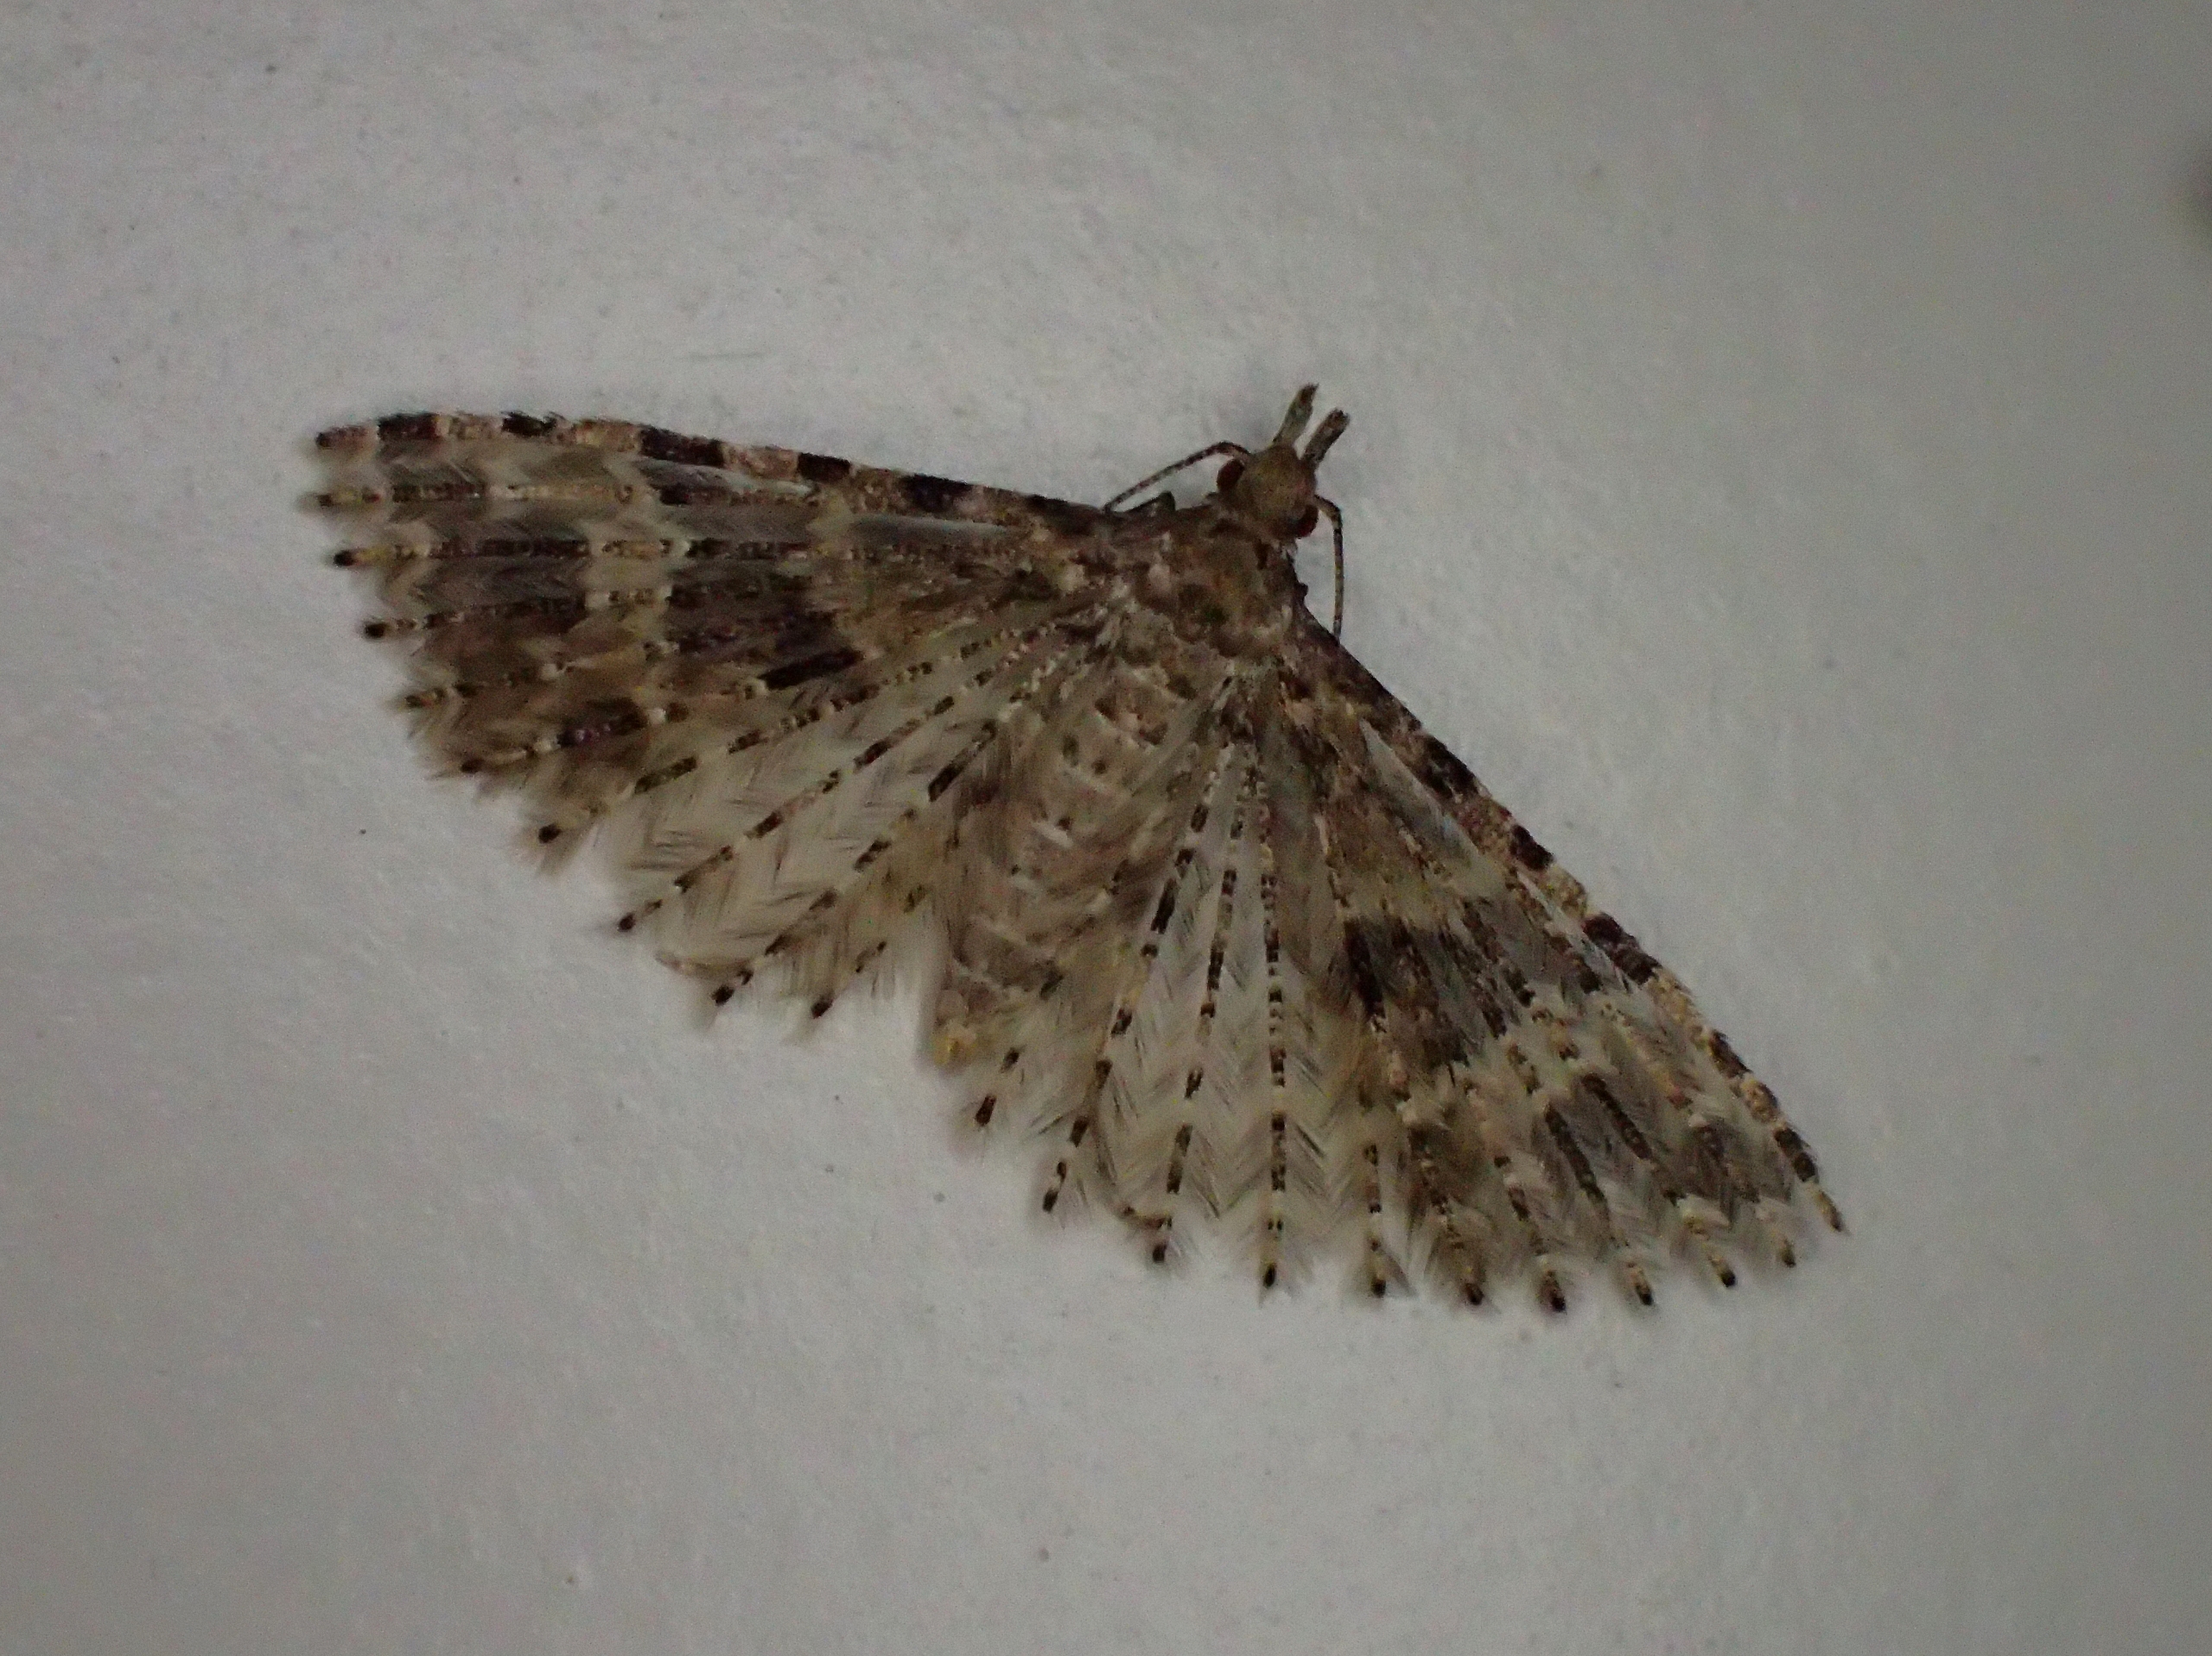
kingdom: Animalia
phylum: Arthropoda
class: Insecta
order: Lepidoptera
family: Alucitidae
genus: Alucita
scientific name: Alucita hexadactyla
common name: Kaprifoliefjermøl
